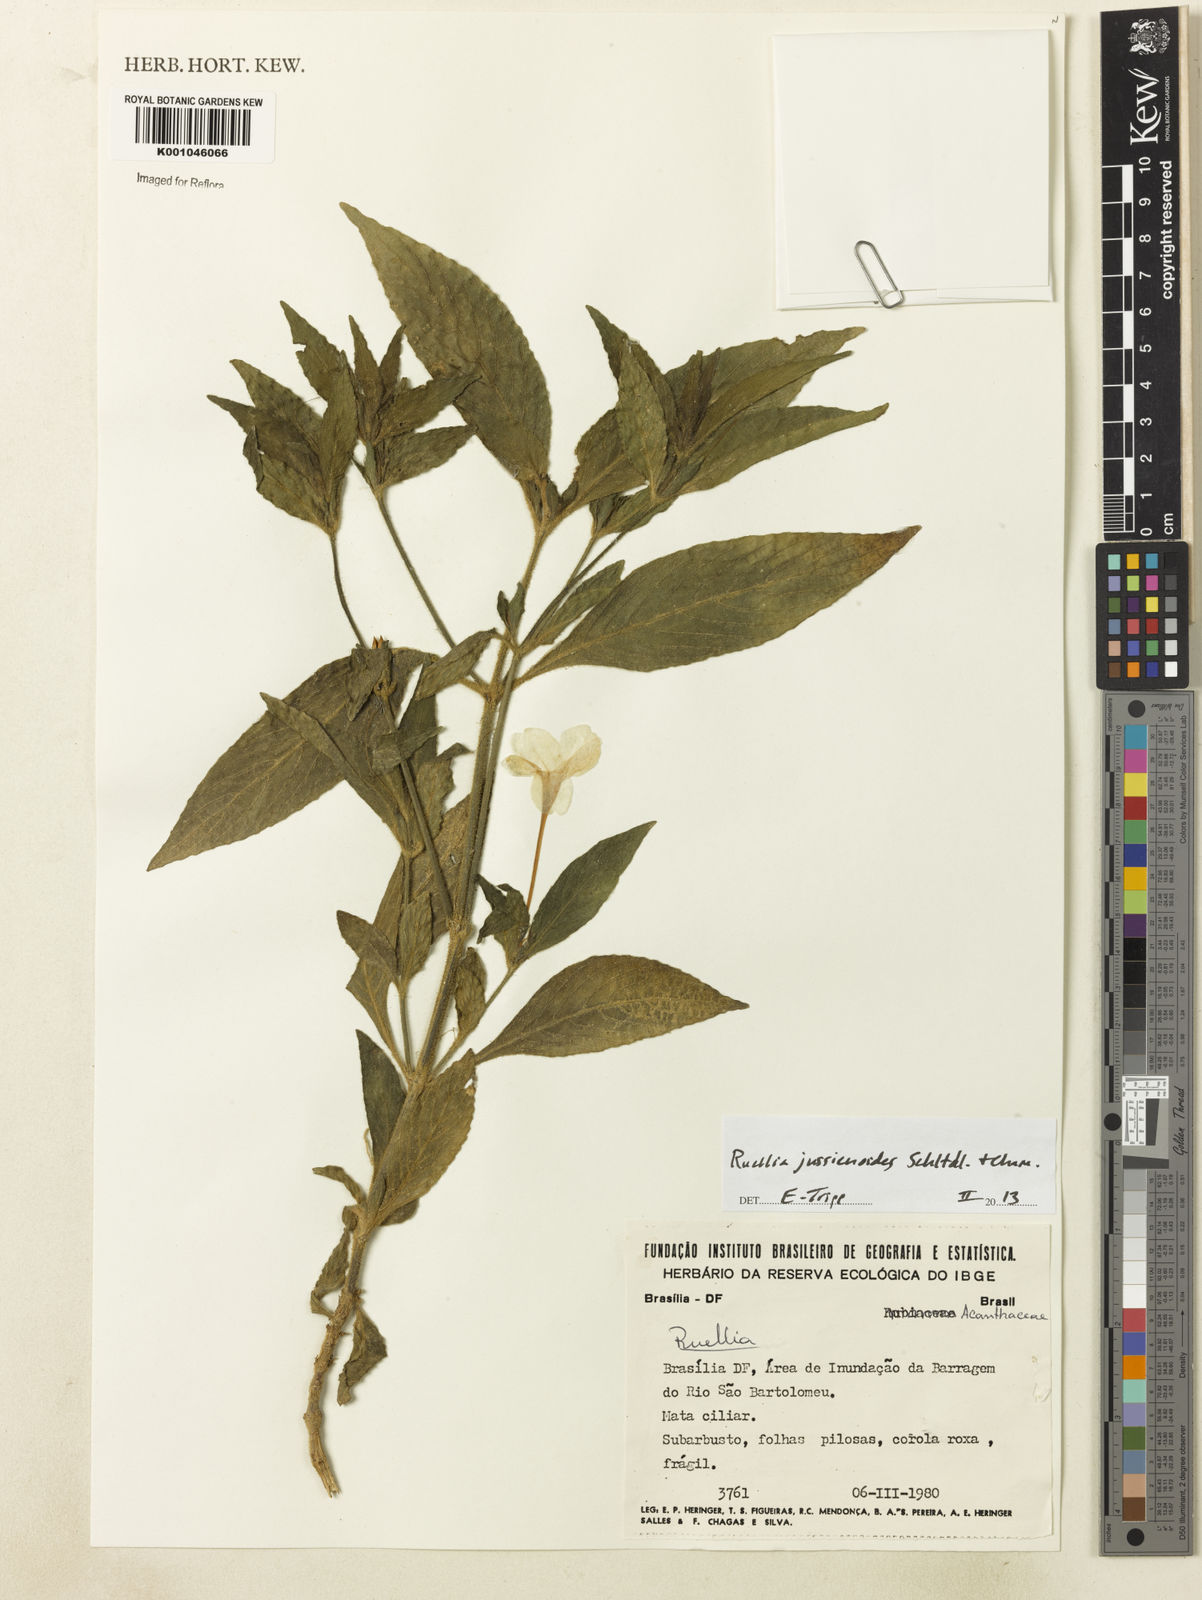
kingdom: Plantae
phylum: Tracheophyta
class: Magnoliopsida
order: Lamiales
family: Acanthaceae
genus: Ruellia
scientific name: Ruellia jussieuoides
